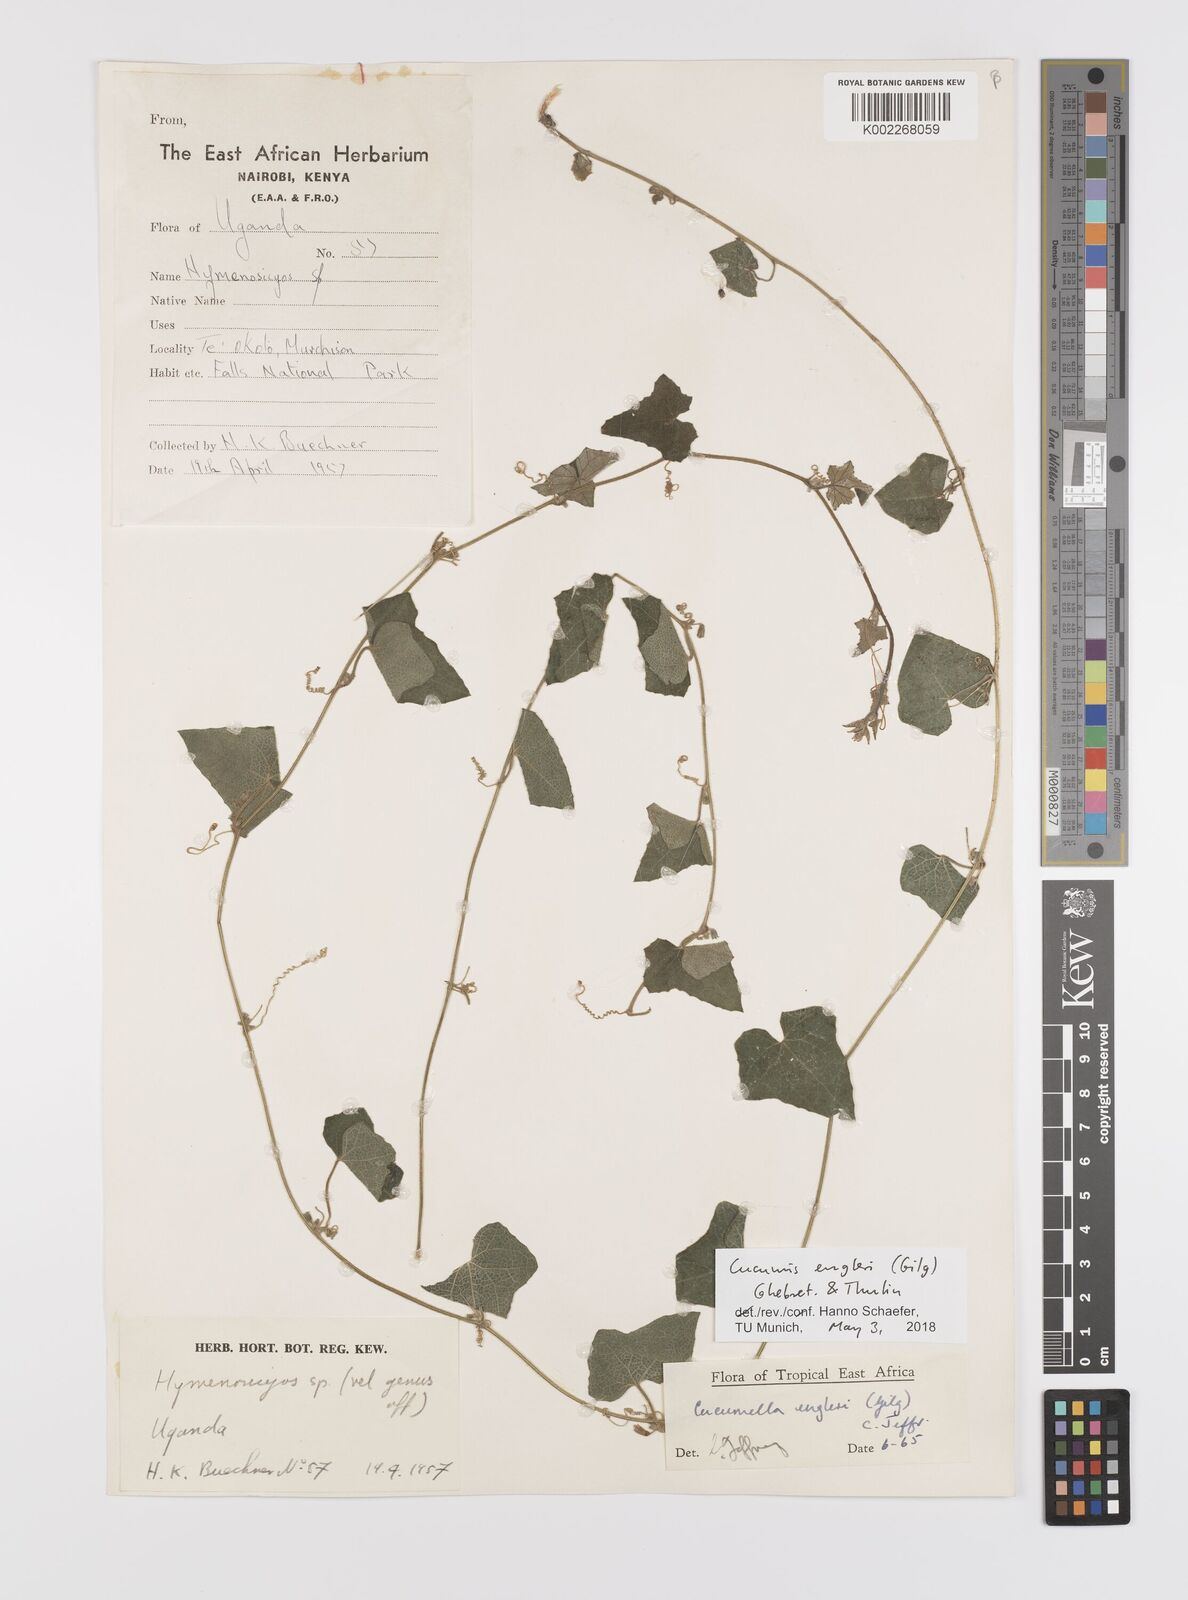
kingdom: Plantae
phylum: Tracheophyta
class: Magnoliopsida
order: Cucurbitales
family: Cucurbitaceae
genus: Cucumis
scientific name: Cucumis engleri
